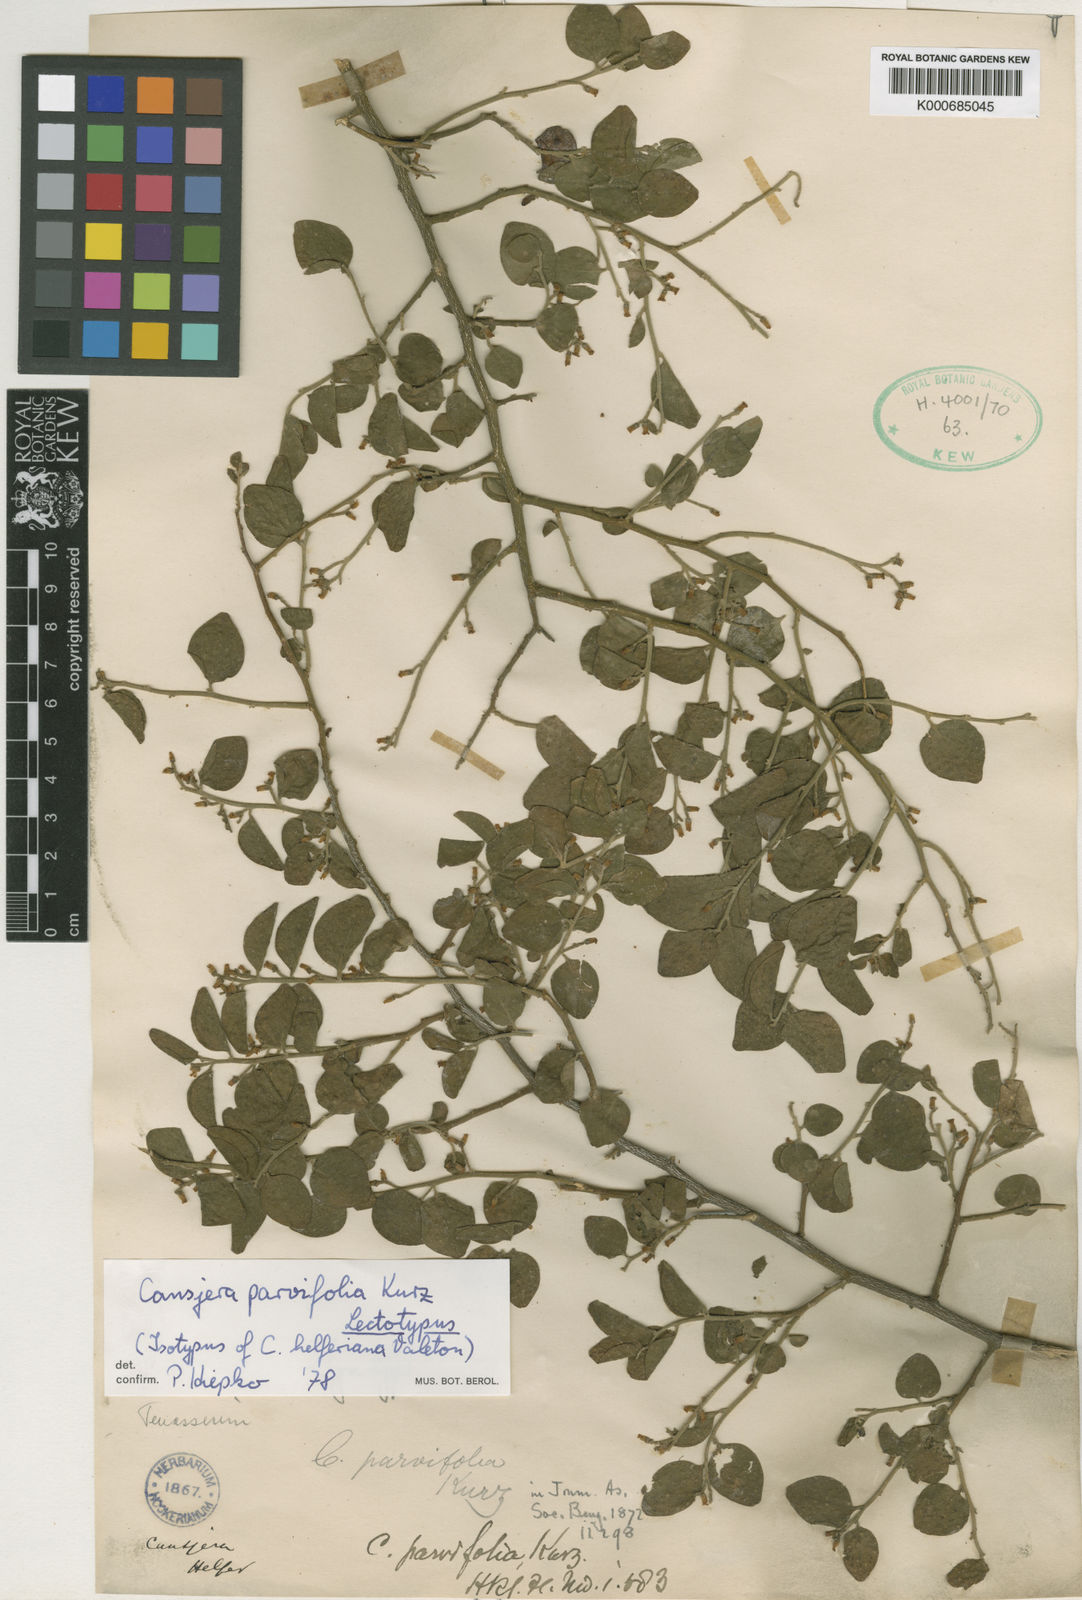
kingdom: Plantae
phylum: Tracheophyta
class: Magnoliopsida
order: Santalales
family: Opiliaceae
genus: Cansjera
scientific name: Cansjera parvifolia
